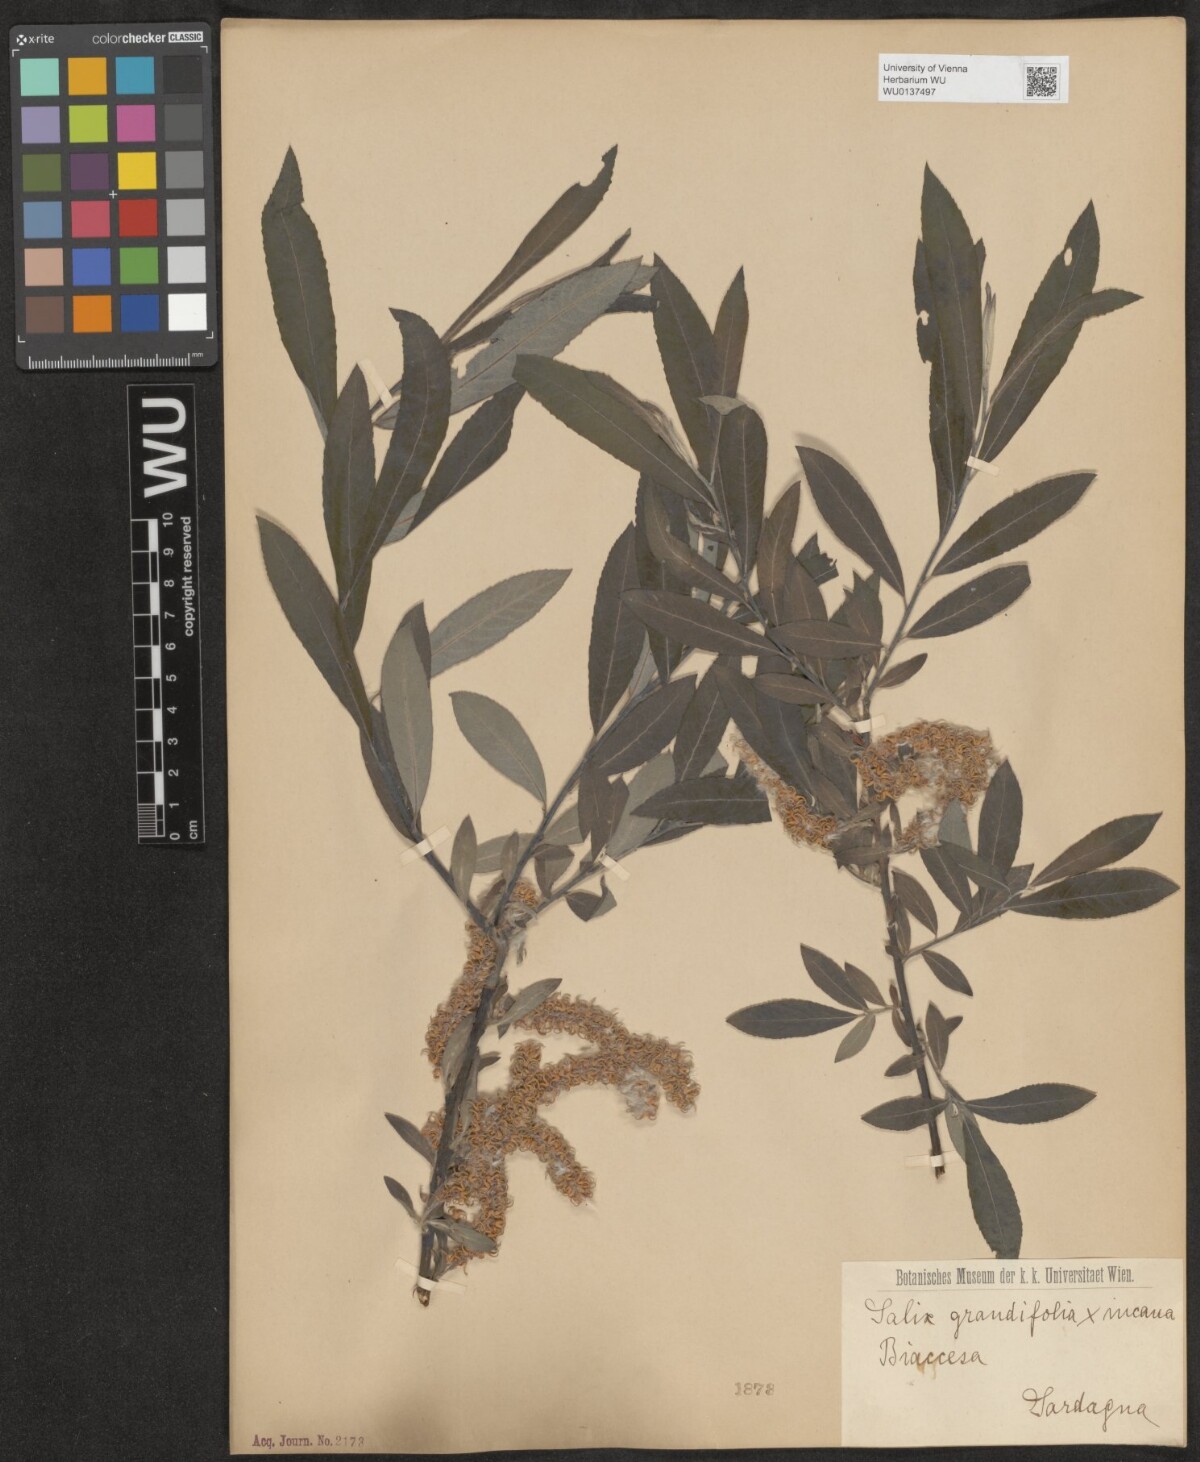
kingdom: Plantae
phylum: Tracheophyta
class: Magnoliopsida
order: Malpighiales
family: Salicaceae
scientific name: Salicaceae
